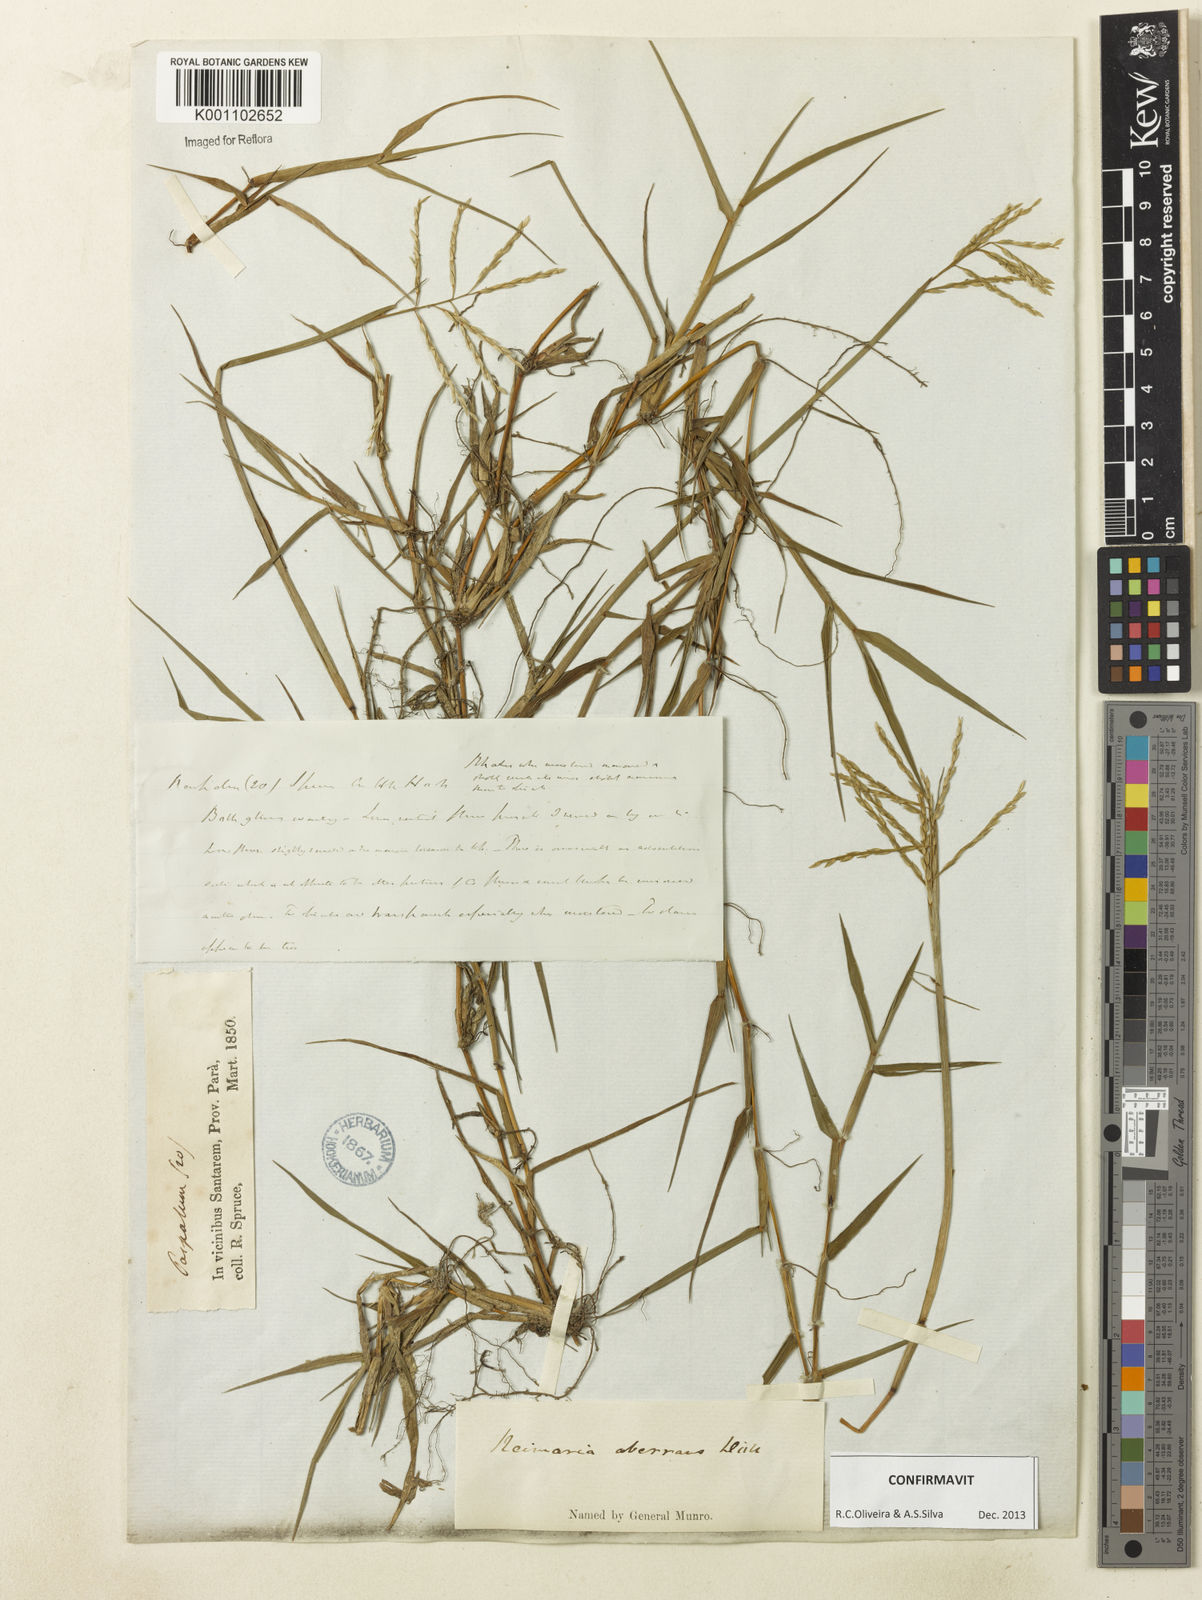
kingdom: Plantae
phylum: Tracheophyta
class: Liliopsida
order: Poales
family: Poaceae
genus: Paspalum
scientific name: Paspalum
